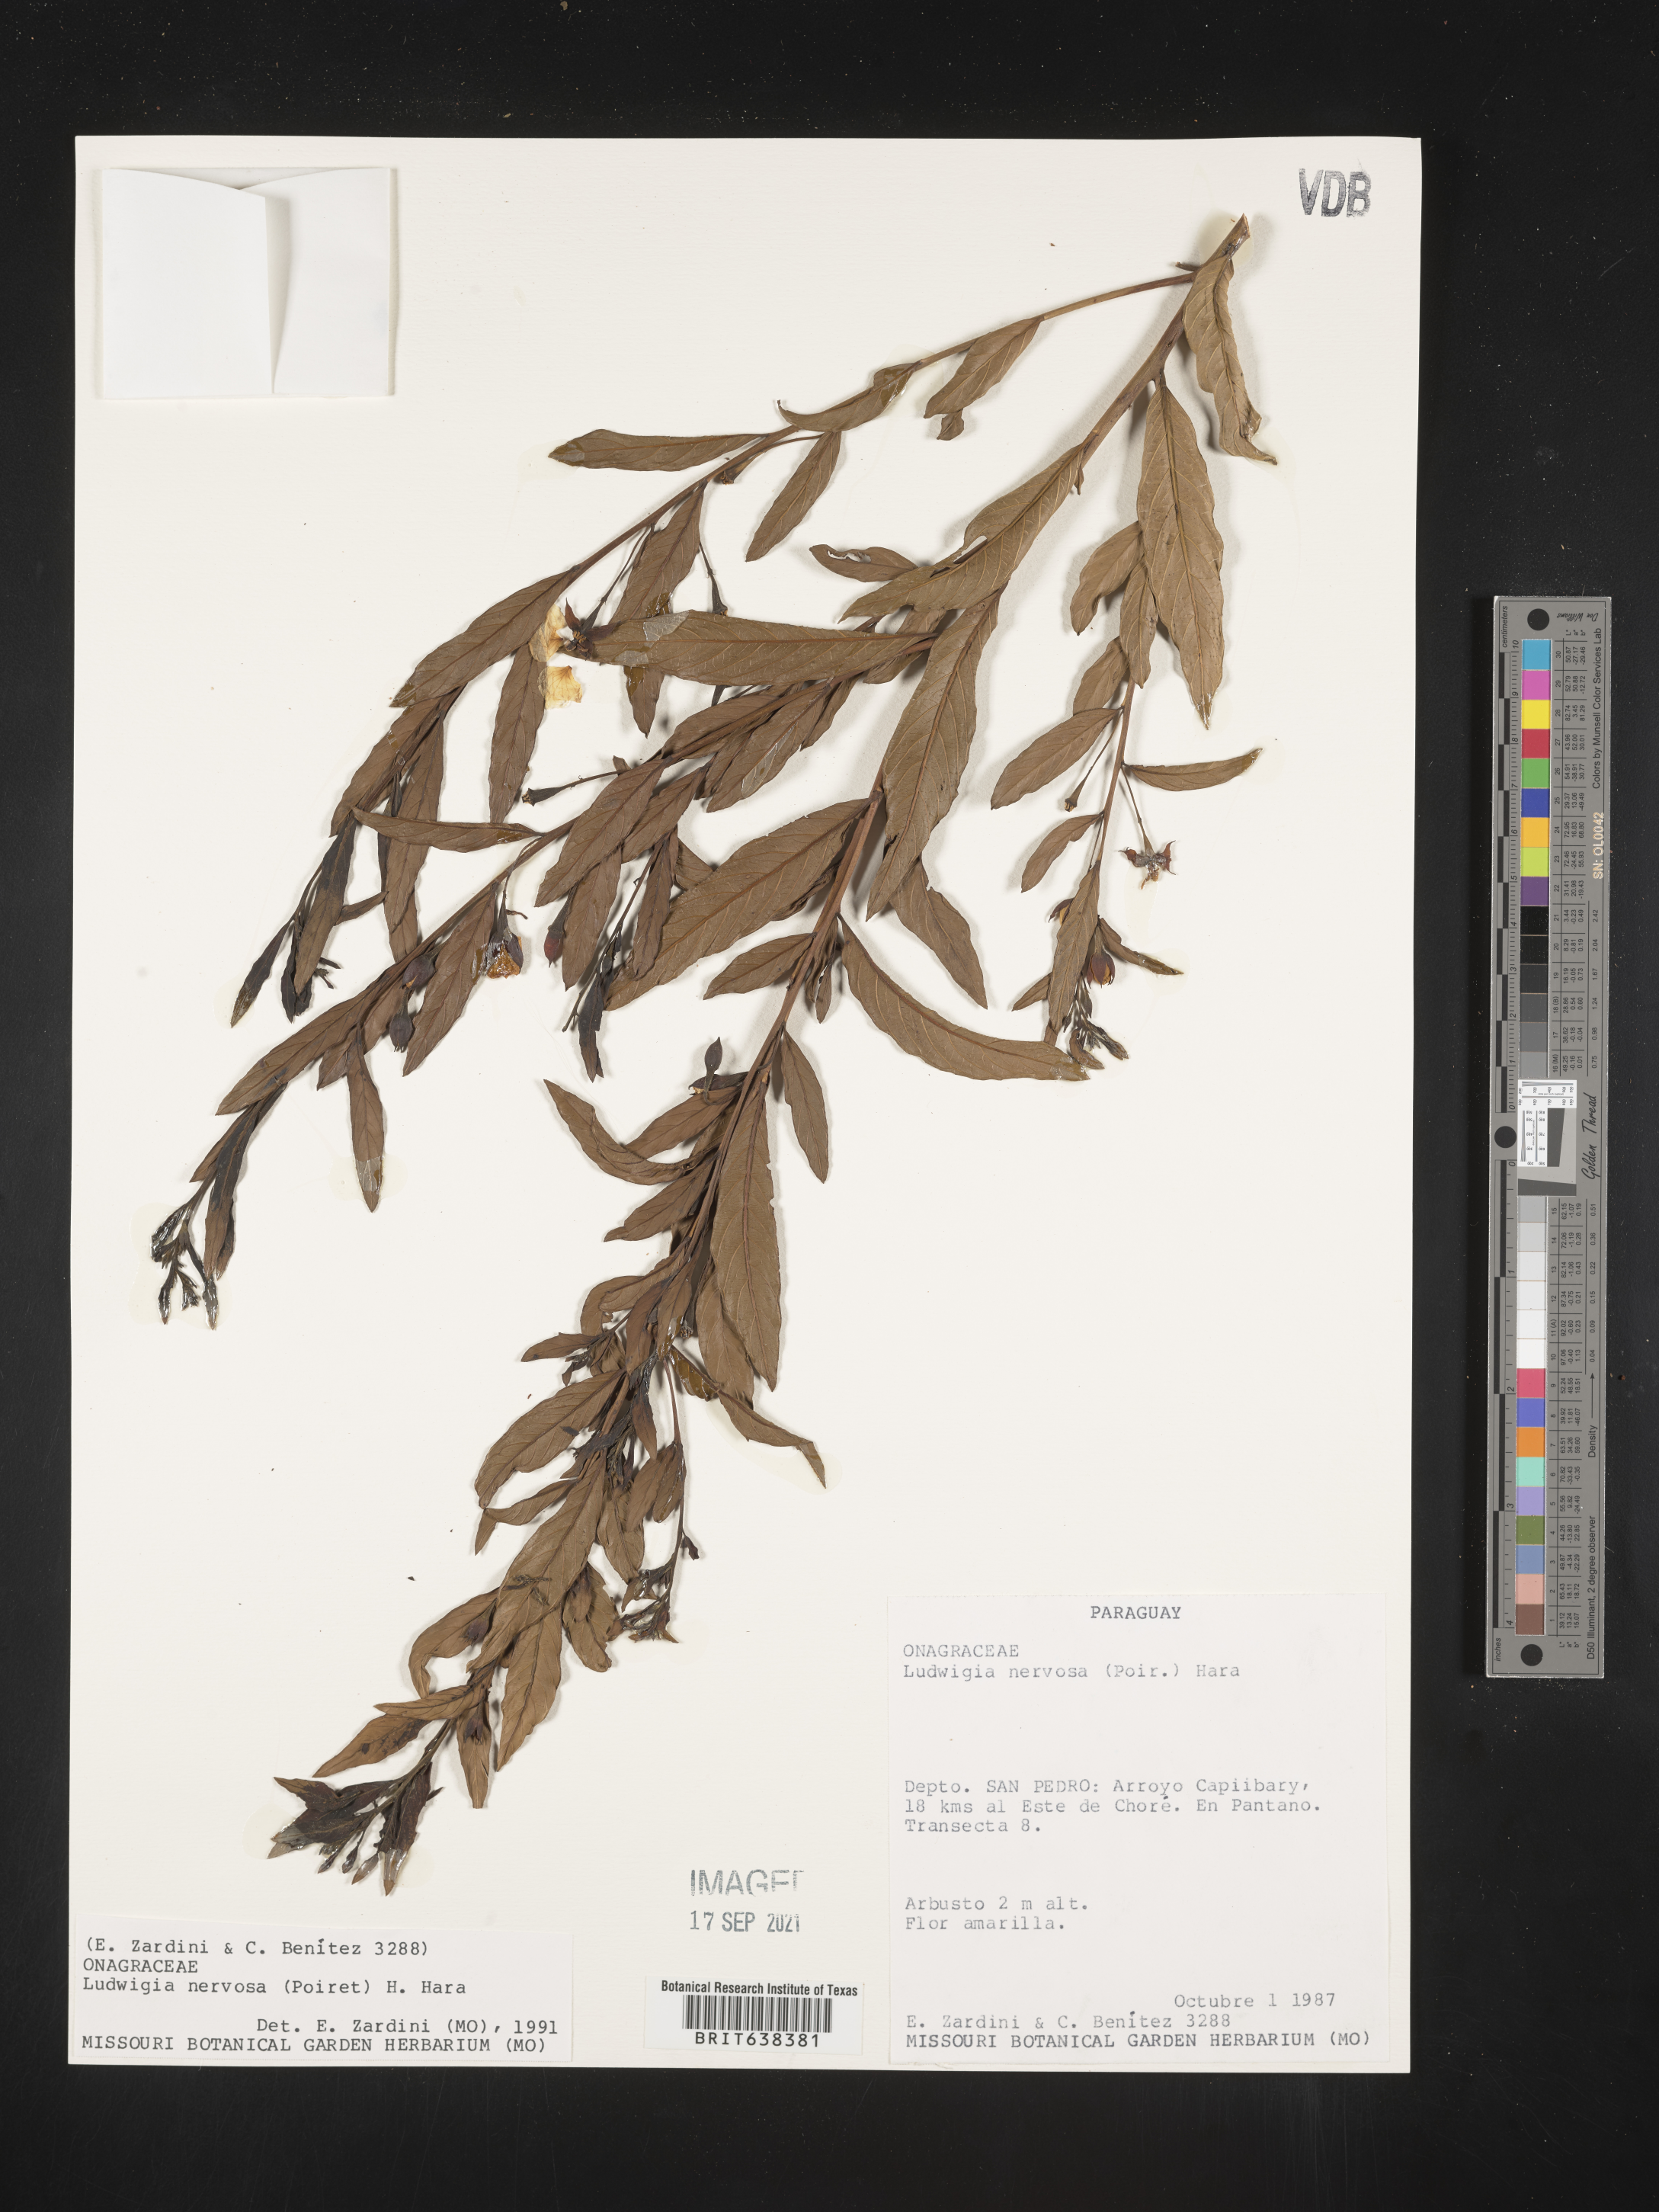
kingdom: Plantae
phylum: Tracheophyta
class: Magnoliopsida
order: Myrtales
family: Onagraceae
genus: Ludwigia
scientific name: Ludwigia
